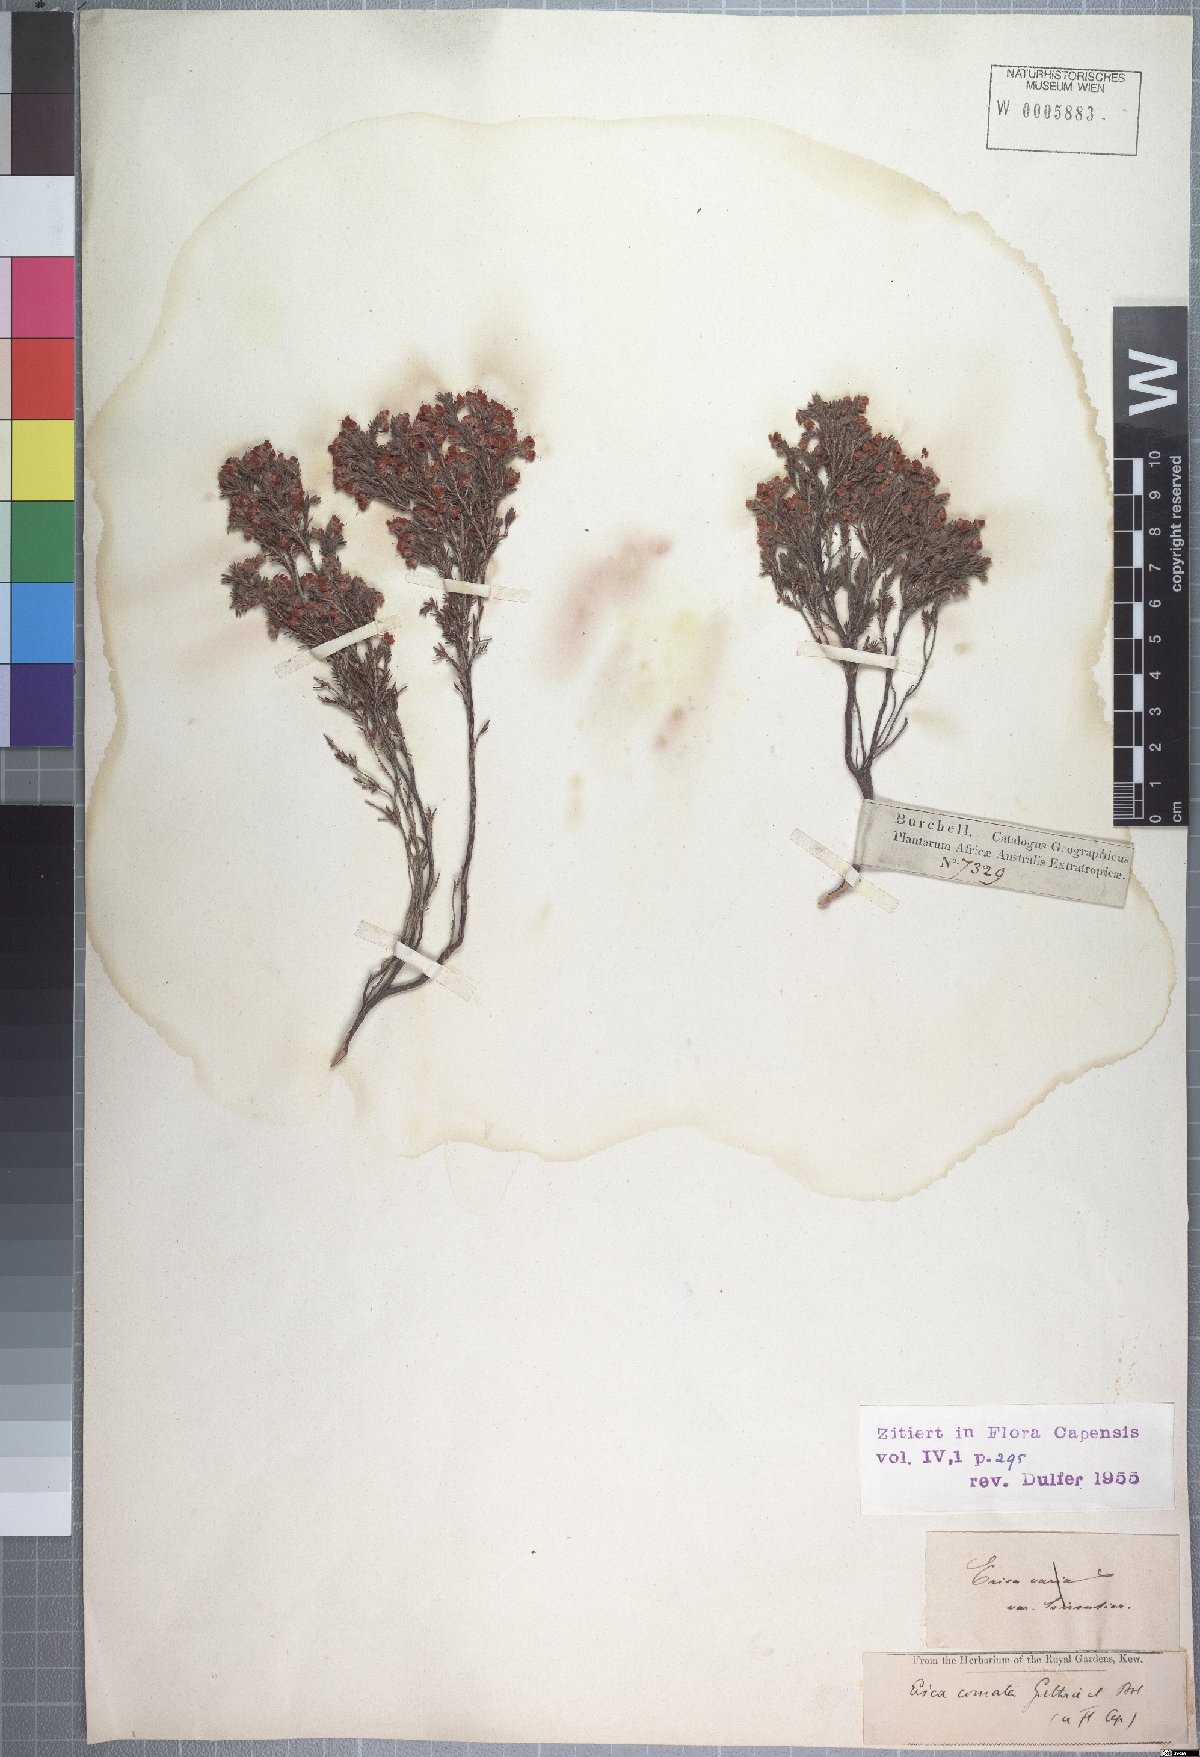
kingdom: Plantae
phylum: Tracheophyta
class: Magnoliopsida
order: Ericales
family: Ericaceae
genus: Erica
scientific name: Erica comata
